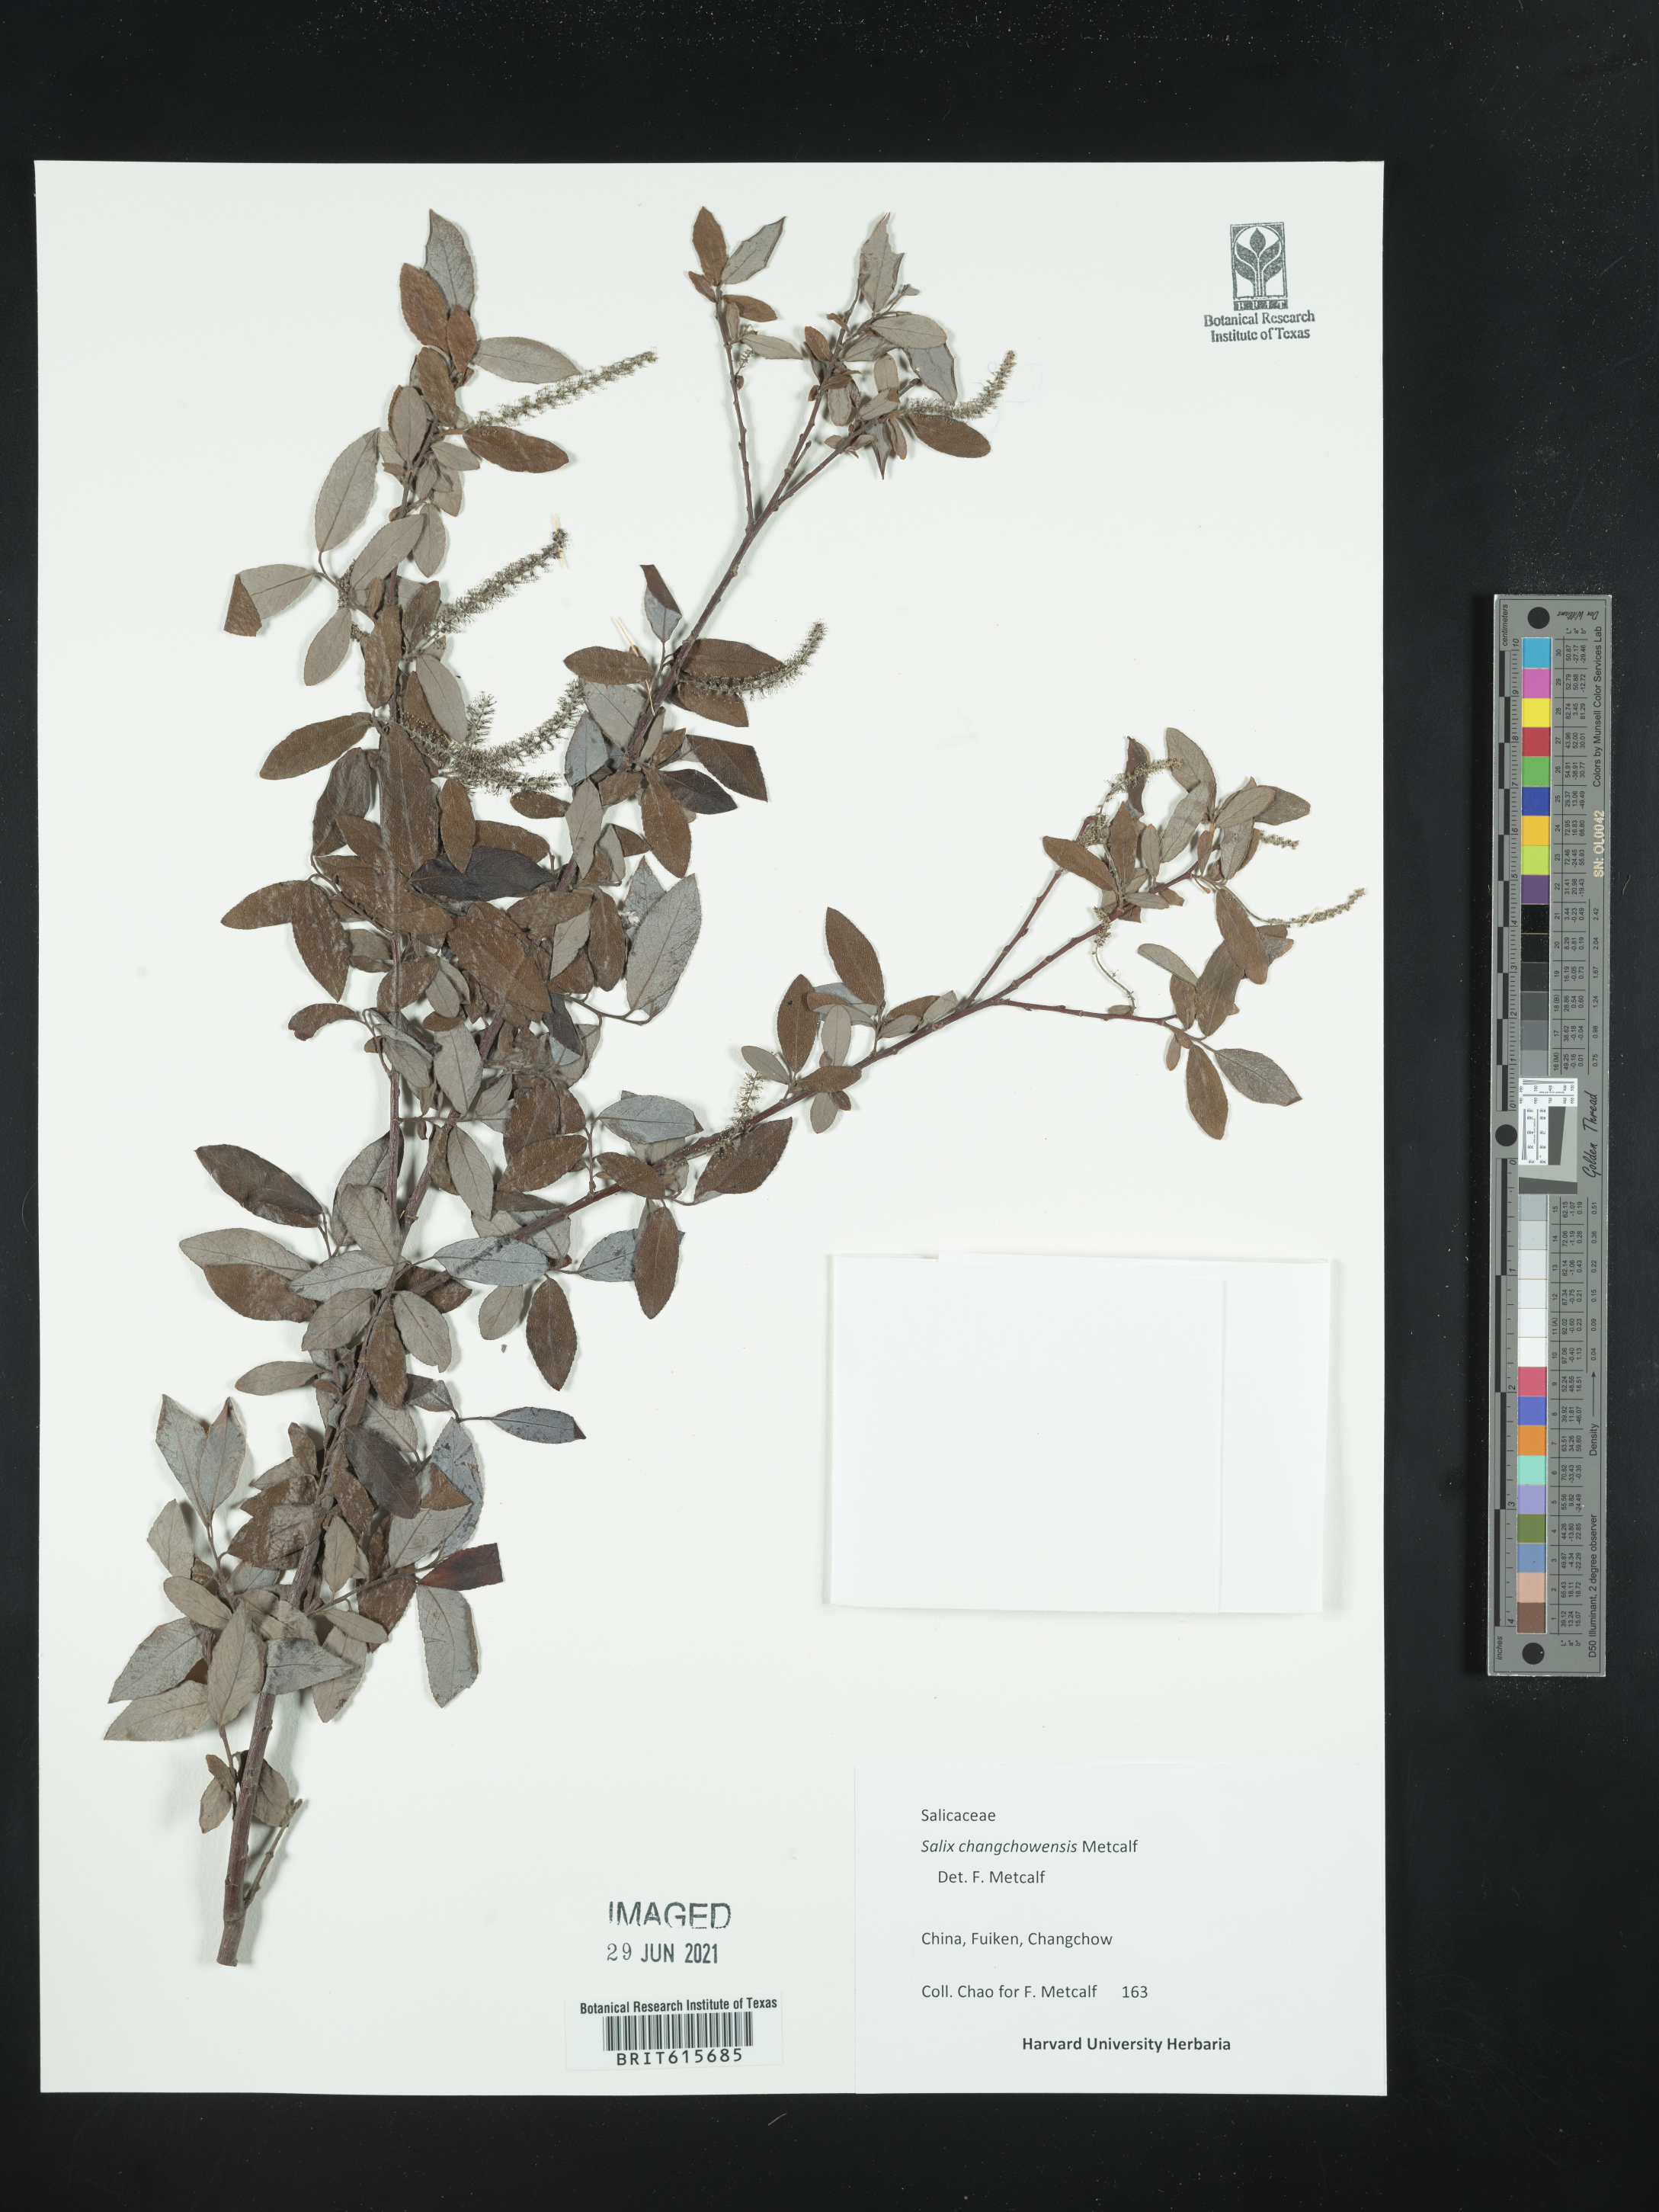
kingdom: Plantae
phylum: Tracheophyta
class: Magnoliopsida
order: Malpighiales
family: Salicaceae
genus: Salix
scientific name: Salix mesnyi
